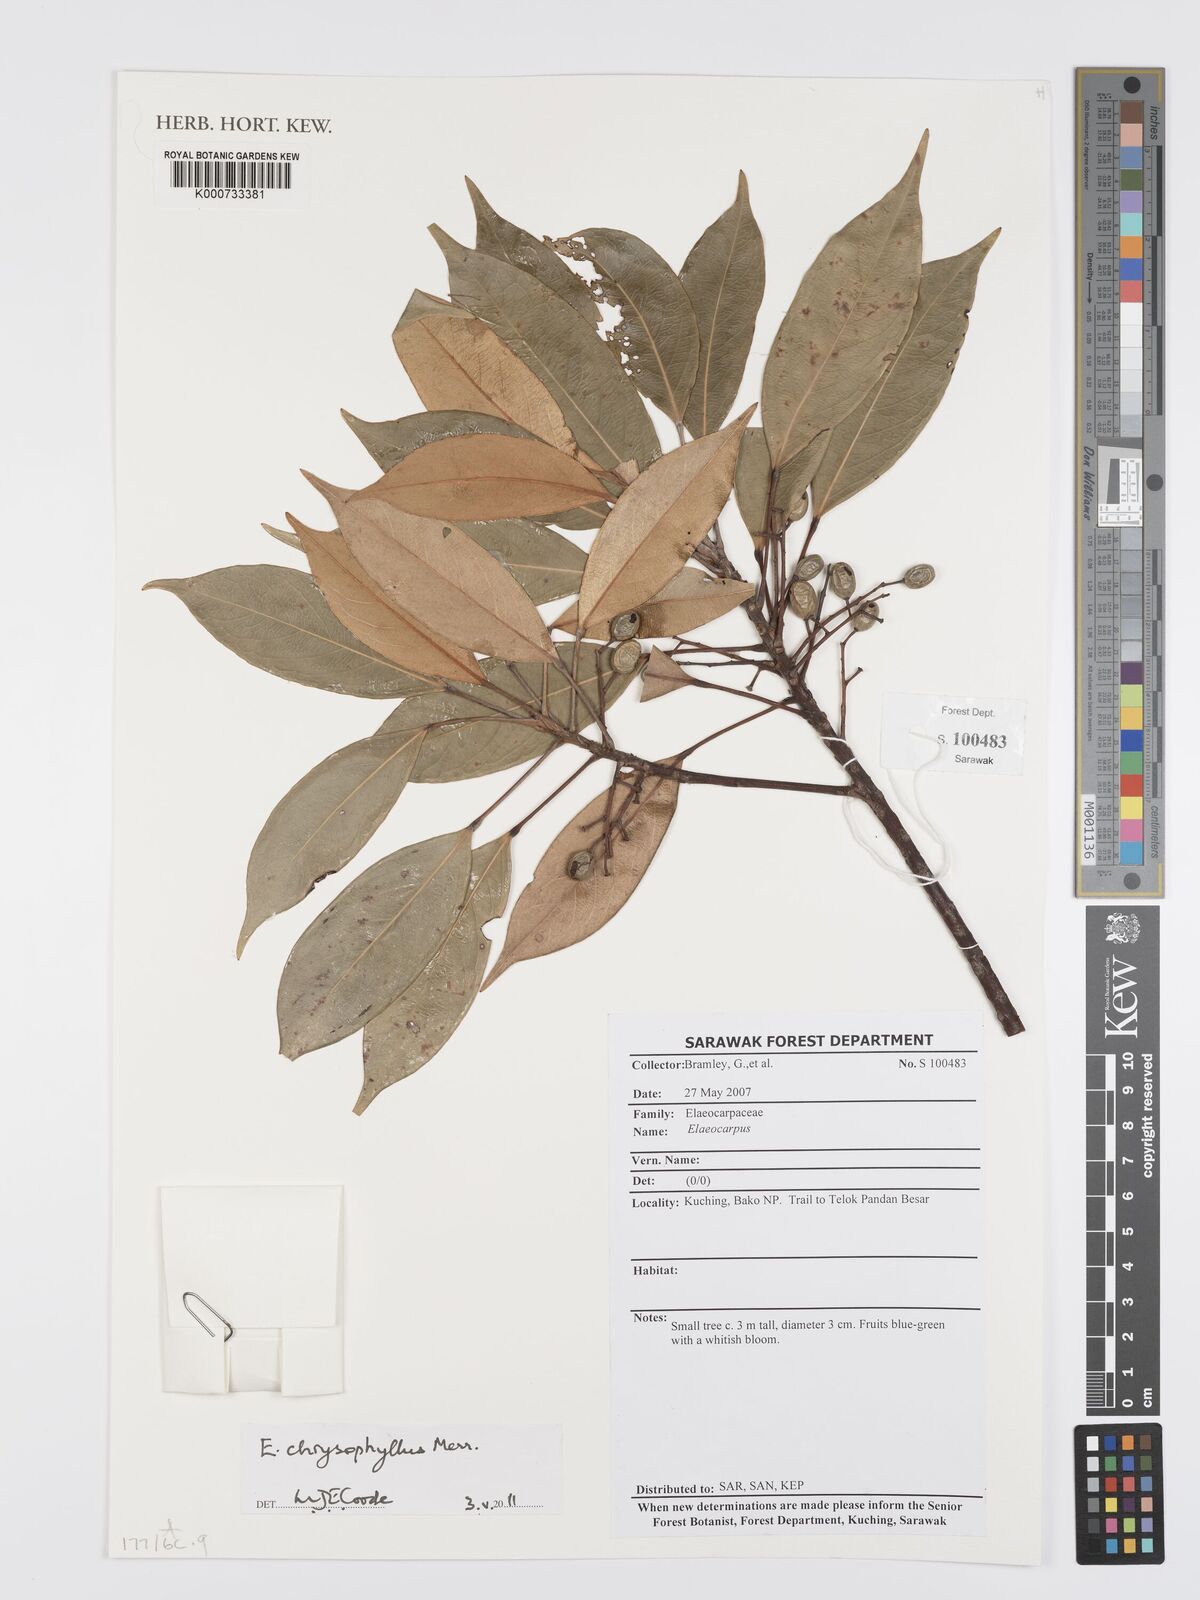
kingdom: Plantae
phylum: Tracheophyta
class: Magnoliopsida
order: Oxalidales
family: Elaeocarpaceae
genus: Elaeocarpus
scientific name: Elaeocarpus chrysophyllus
